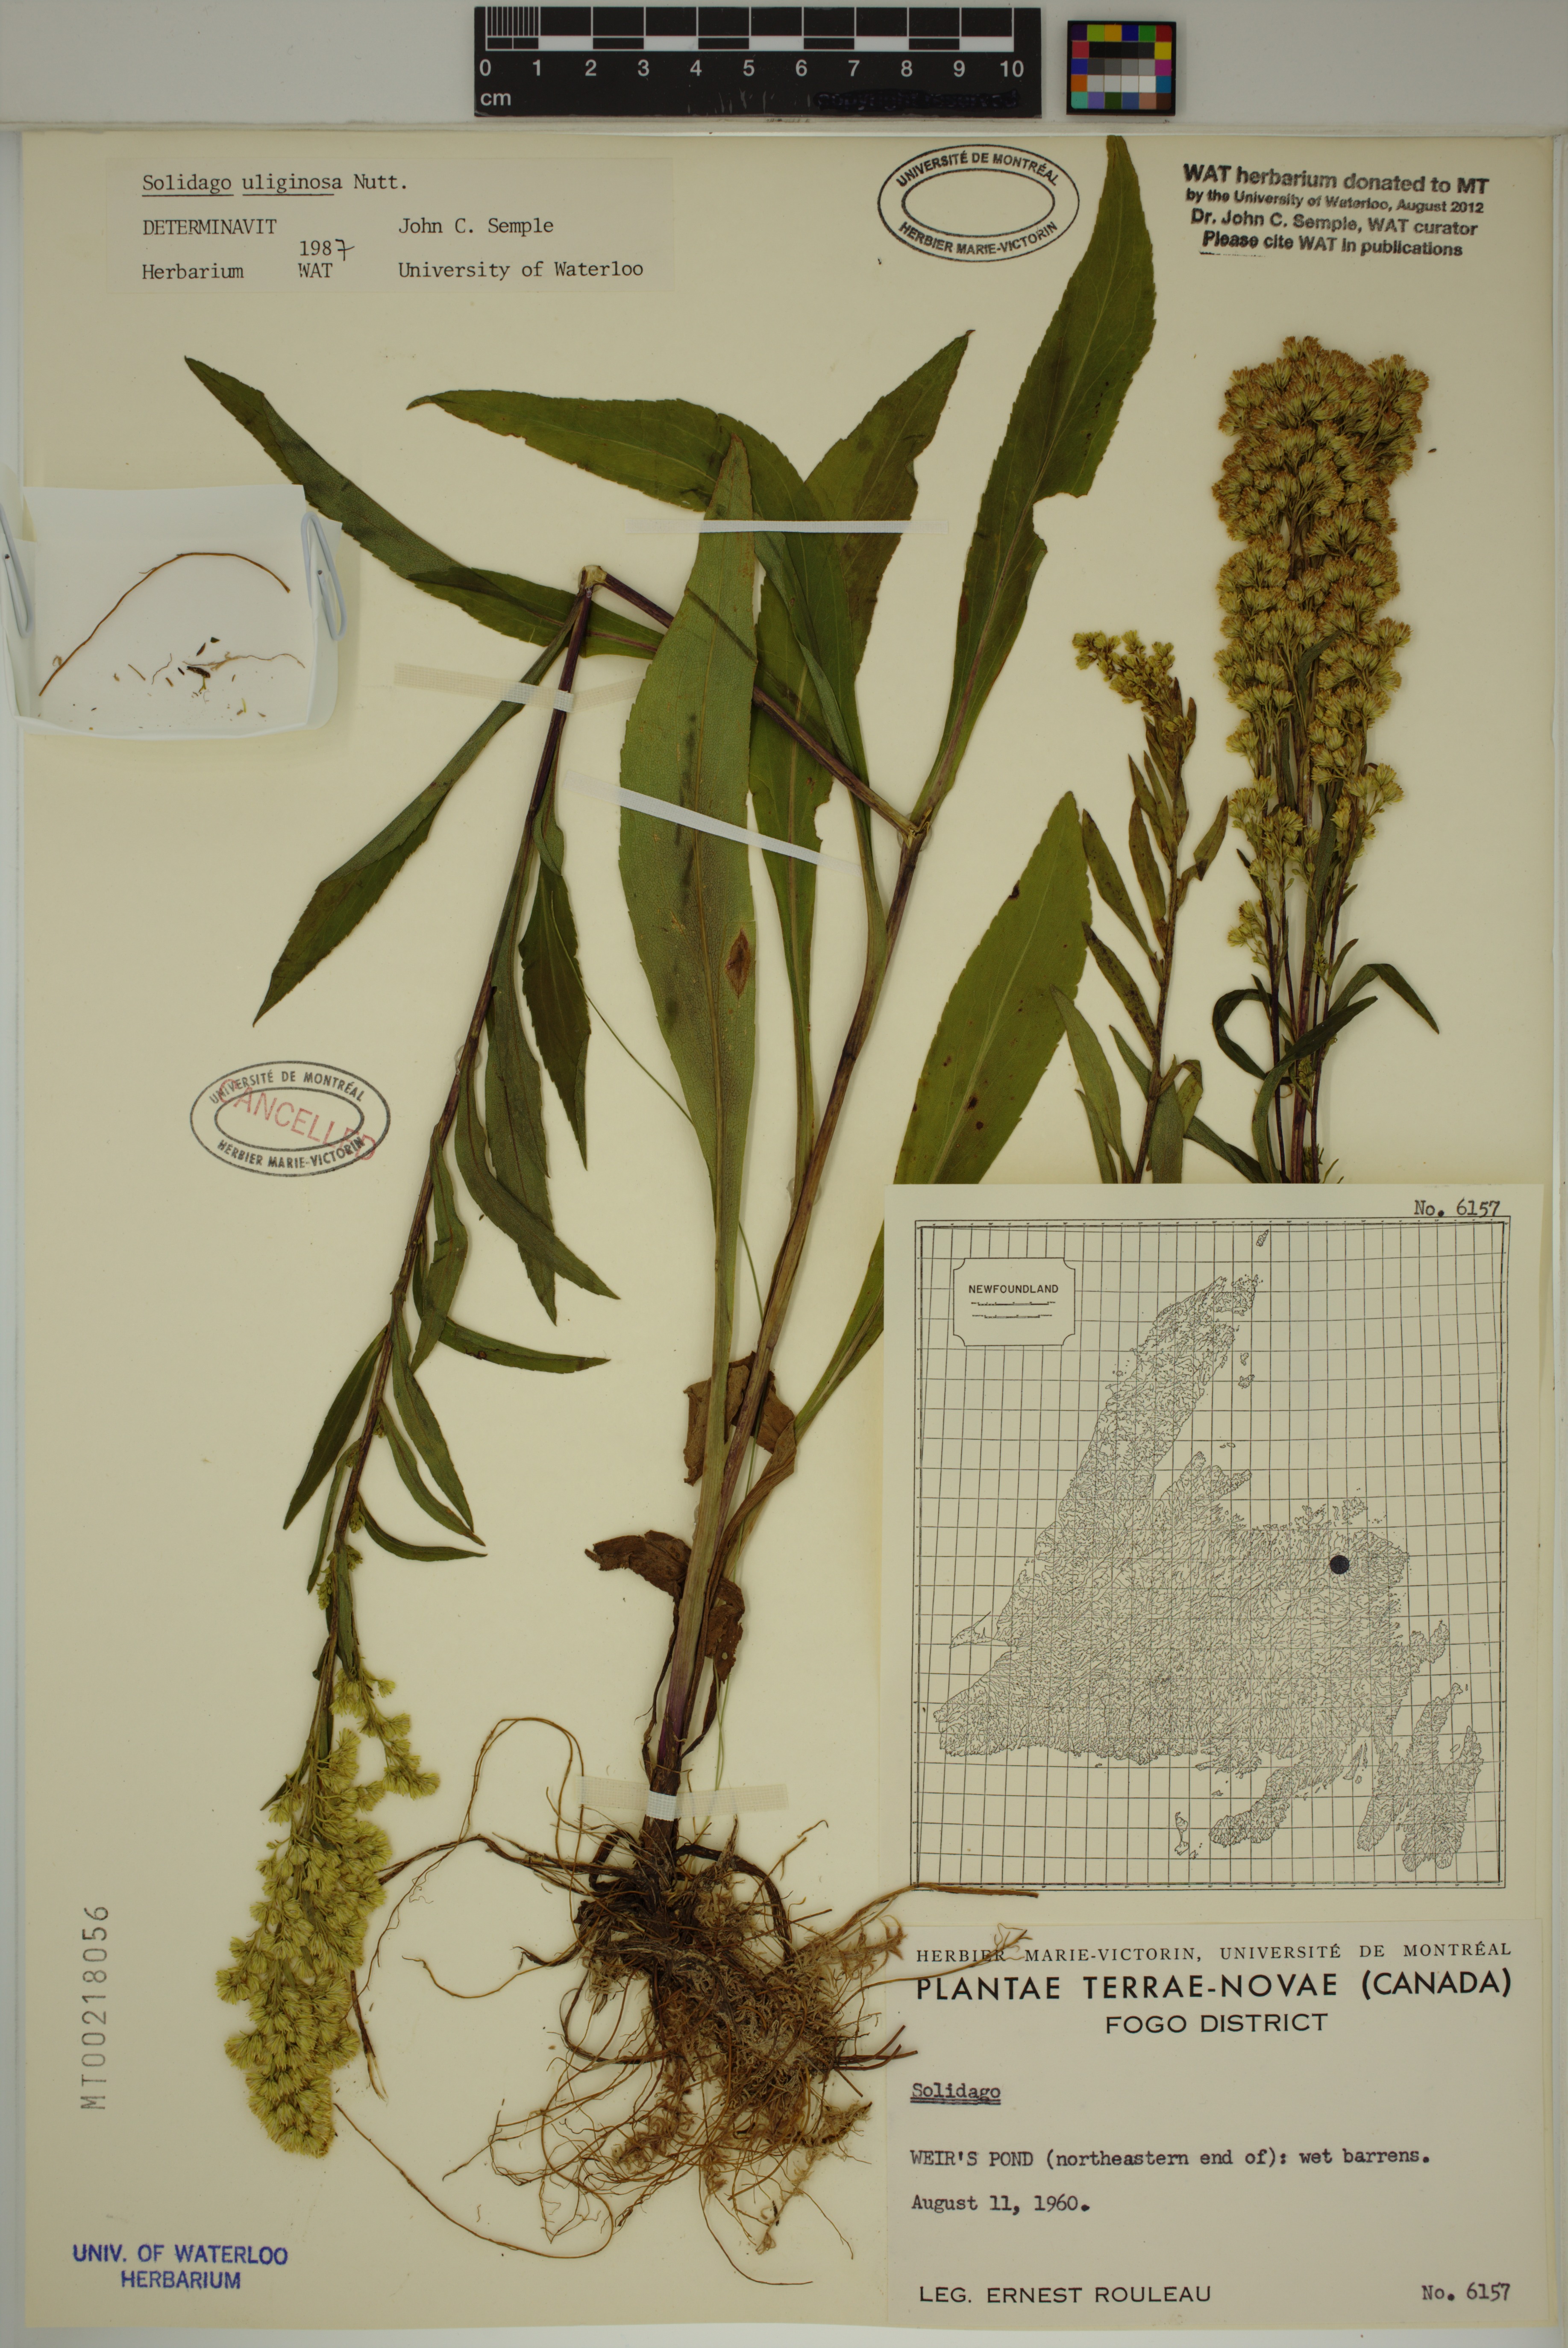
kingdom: Plantae
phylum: Tracheophyta
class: Magnoliopsida
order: Asterales
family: Asteraceae
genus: Solidago
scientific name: Solidago uliginosa
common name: Bog goldenrod
